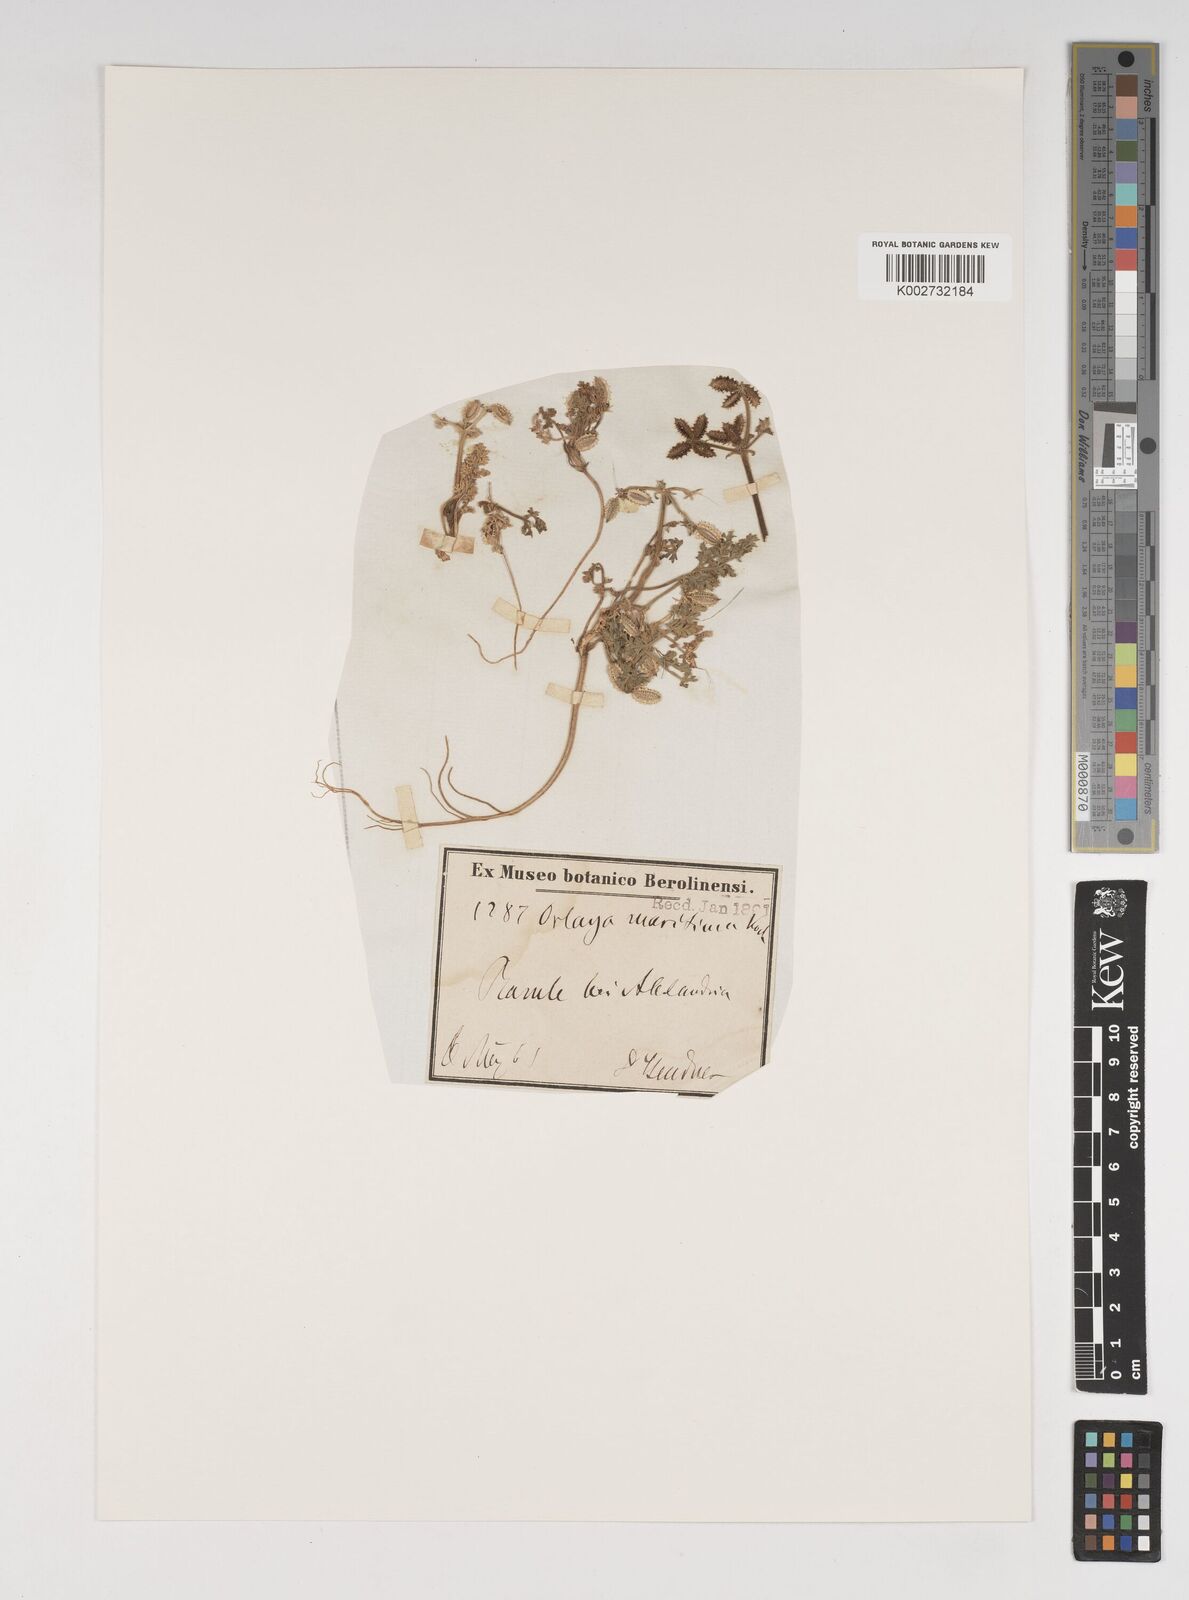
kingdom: Plantae
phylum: Tracheophyta
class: Magnoliopsida
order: Apiales
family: Apiaceae
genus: Daucus
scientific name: Daucus pumilus
